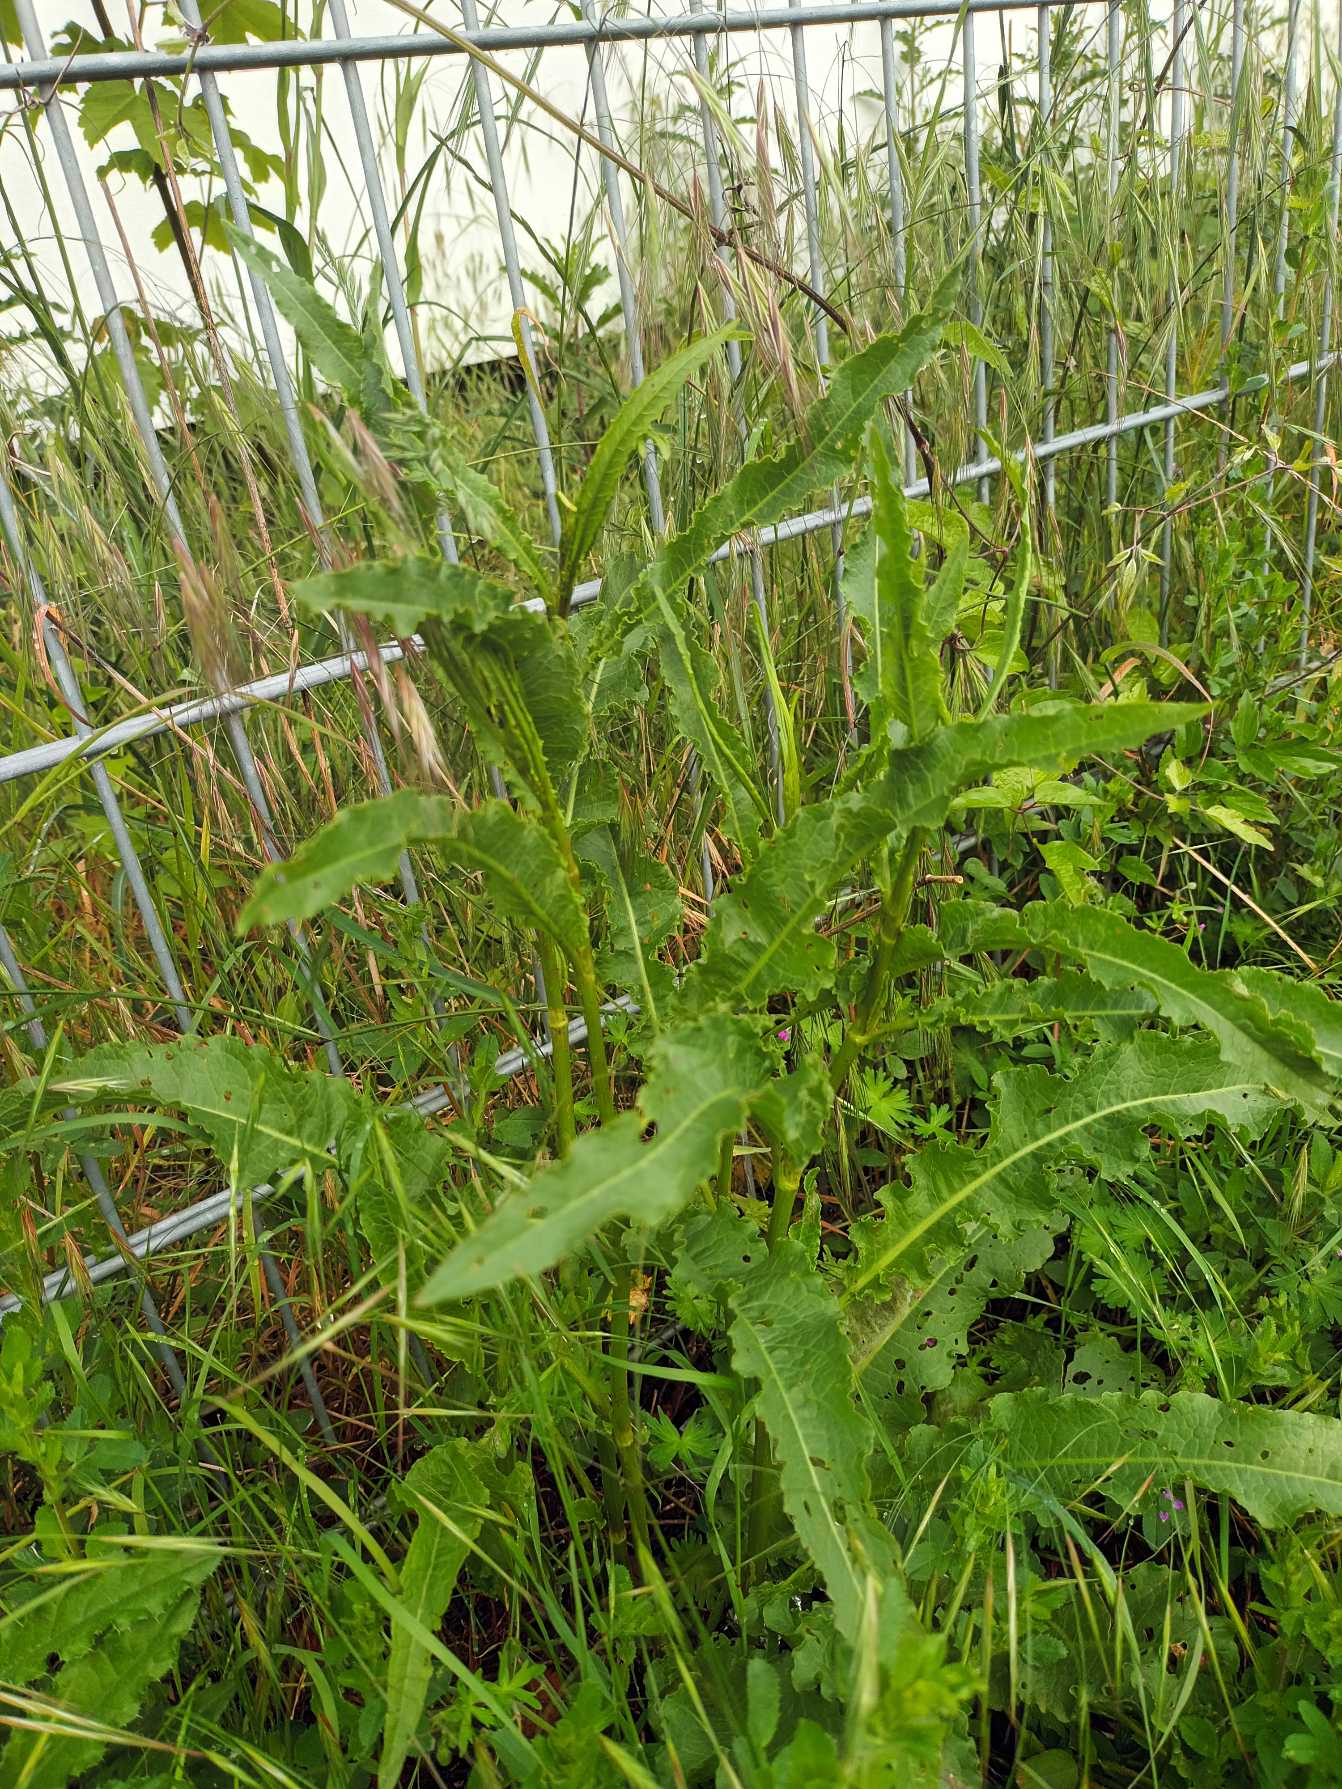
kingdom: Plantae
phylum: Tracheophyta
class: Magnoliopsida
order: Caryophyllales
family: Polygonaceae
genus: Rumex
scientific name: Rumex crispus
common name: Kruset skræppe
